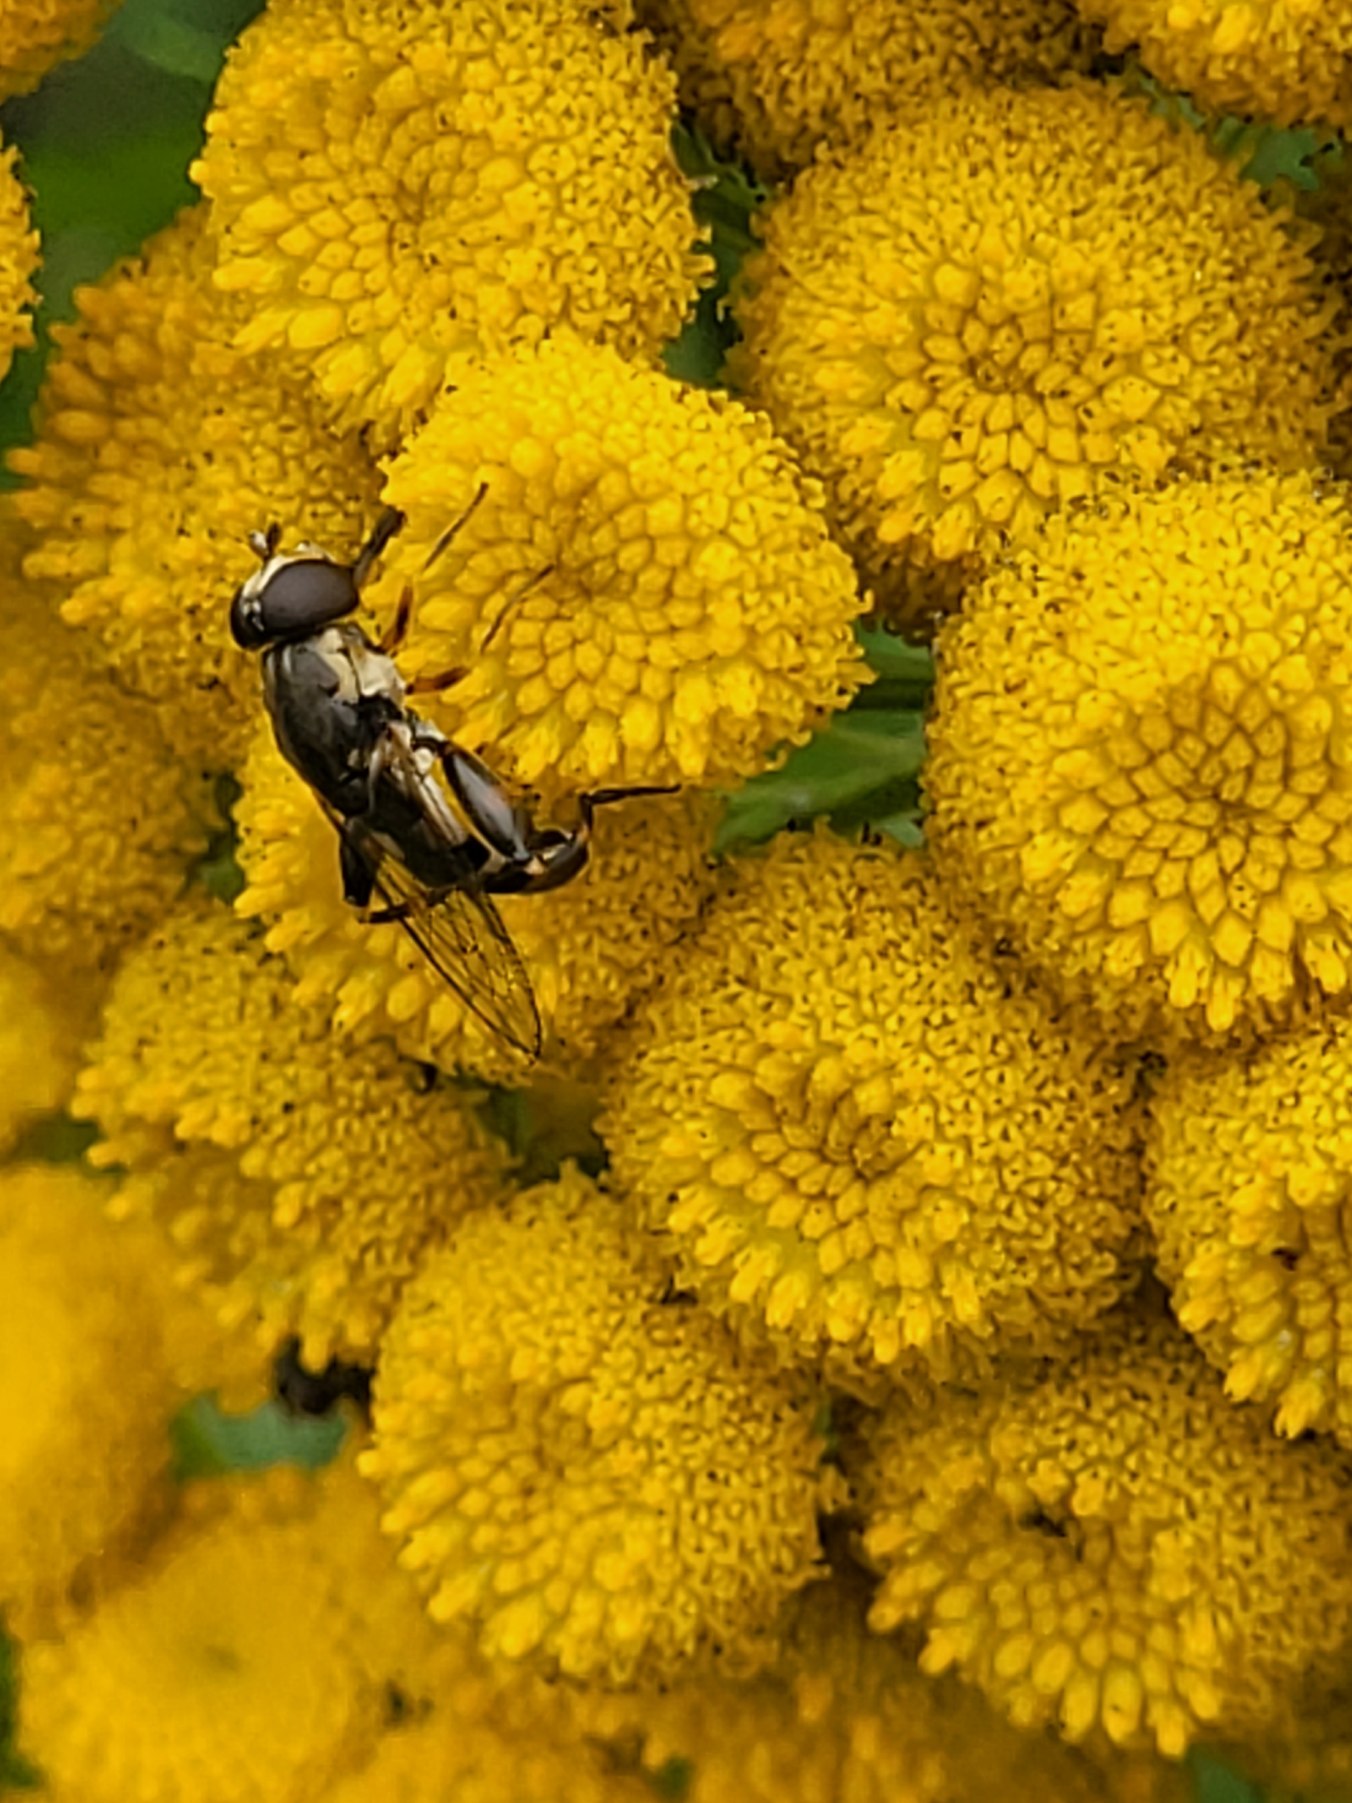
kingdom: Animalia
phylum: Arthropoda
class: Insecta
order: Diptera
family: Syrphidae
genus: Syritta
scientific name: Syritta pipiens
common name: Kompost-svirreflue
